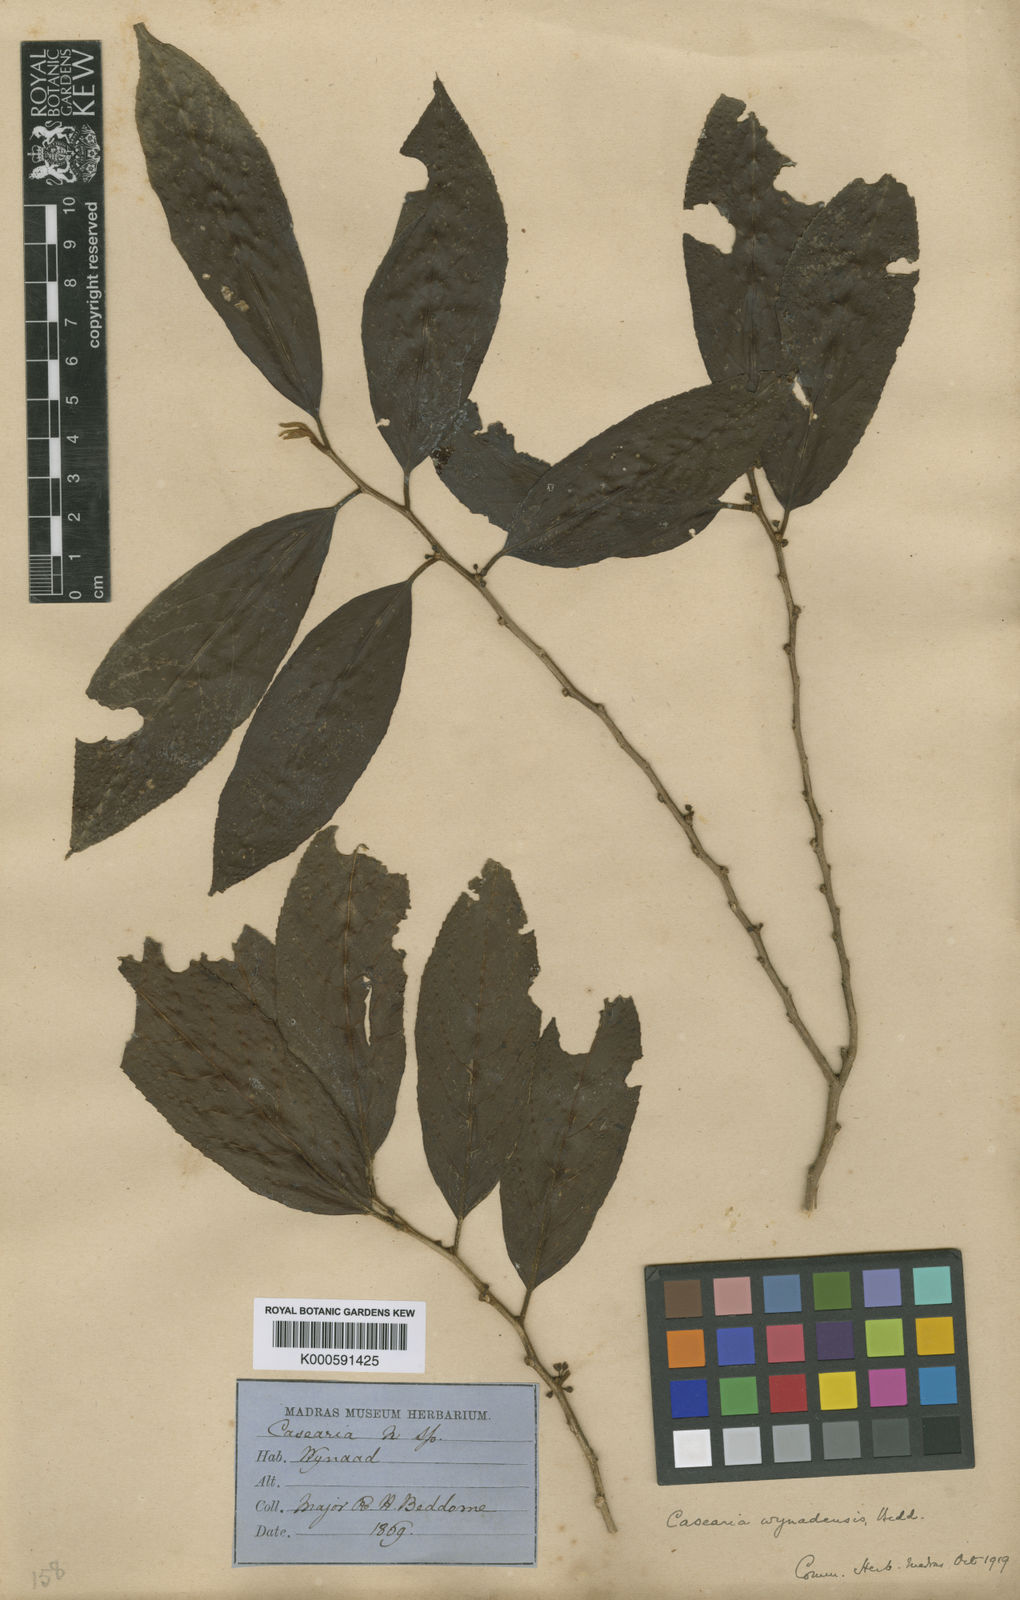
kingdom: Plantae
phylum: Tracheophyta
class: Magnoliopsida
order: Malpighiales
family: Salicaceae
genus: Casearia
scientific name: Casearia wynadensis
